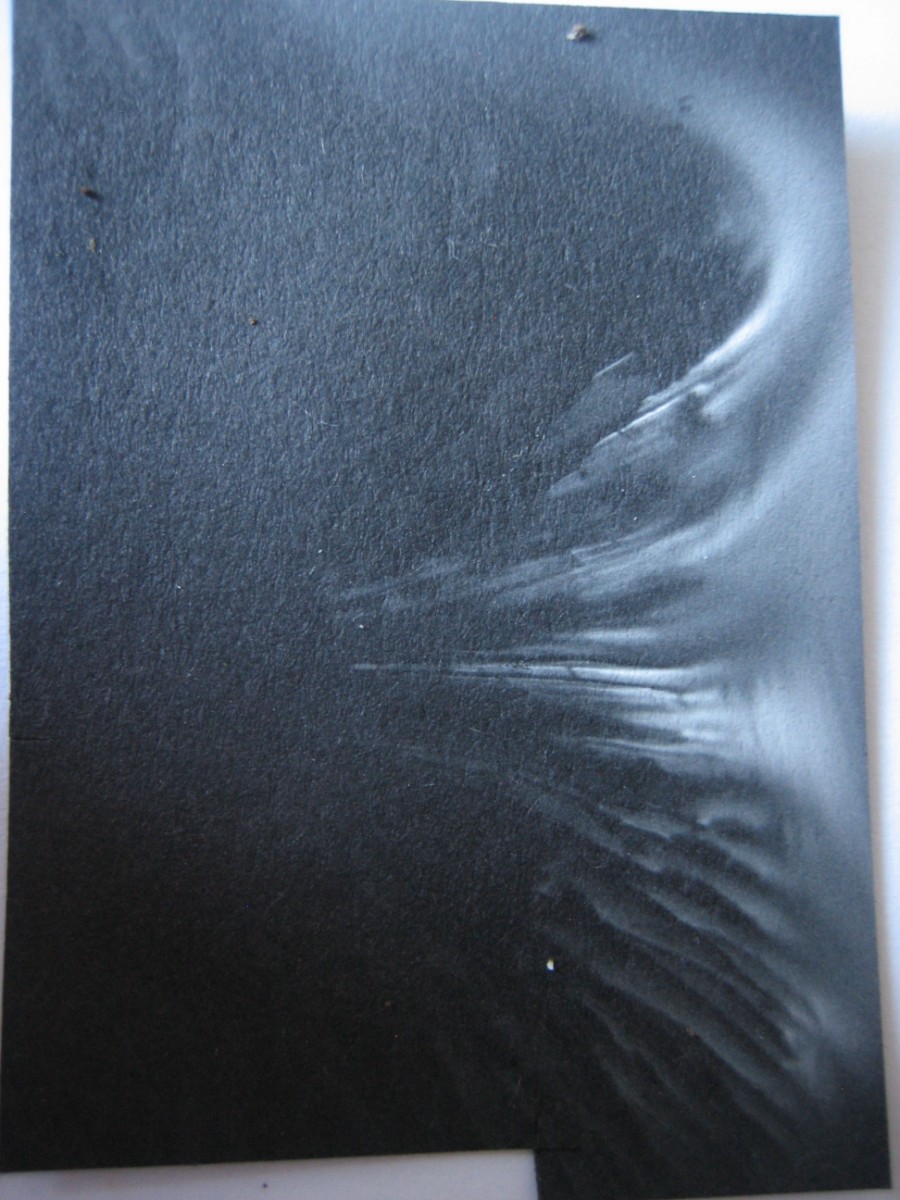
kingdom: Fungi
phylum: Basidiomycota
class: Agaricomycetes
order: Agaricales
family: Tricholomataceae
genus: Tricholoma
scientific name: Tricholoma terreum
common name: jordfarvet ridderhat
